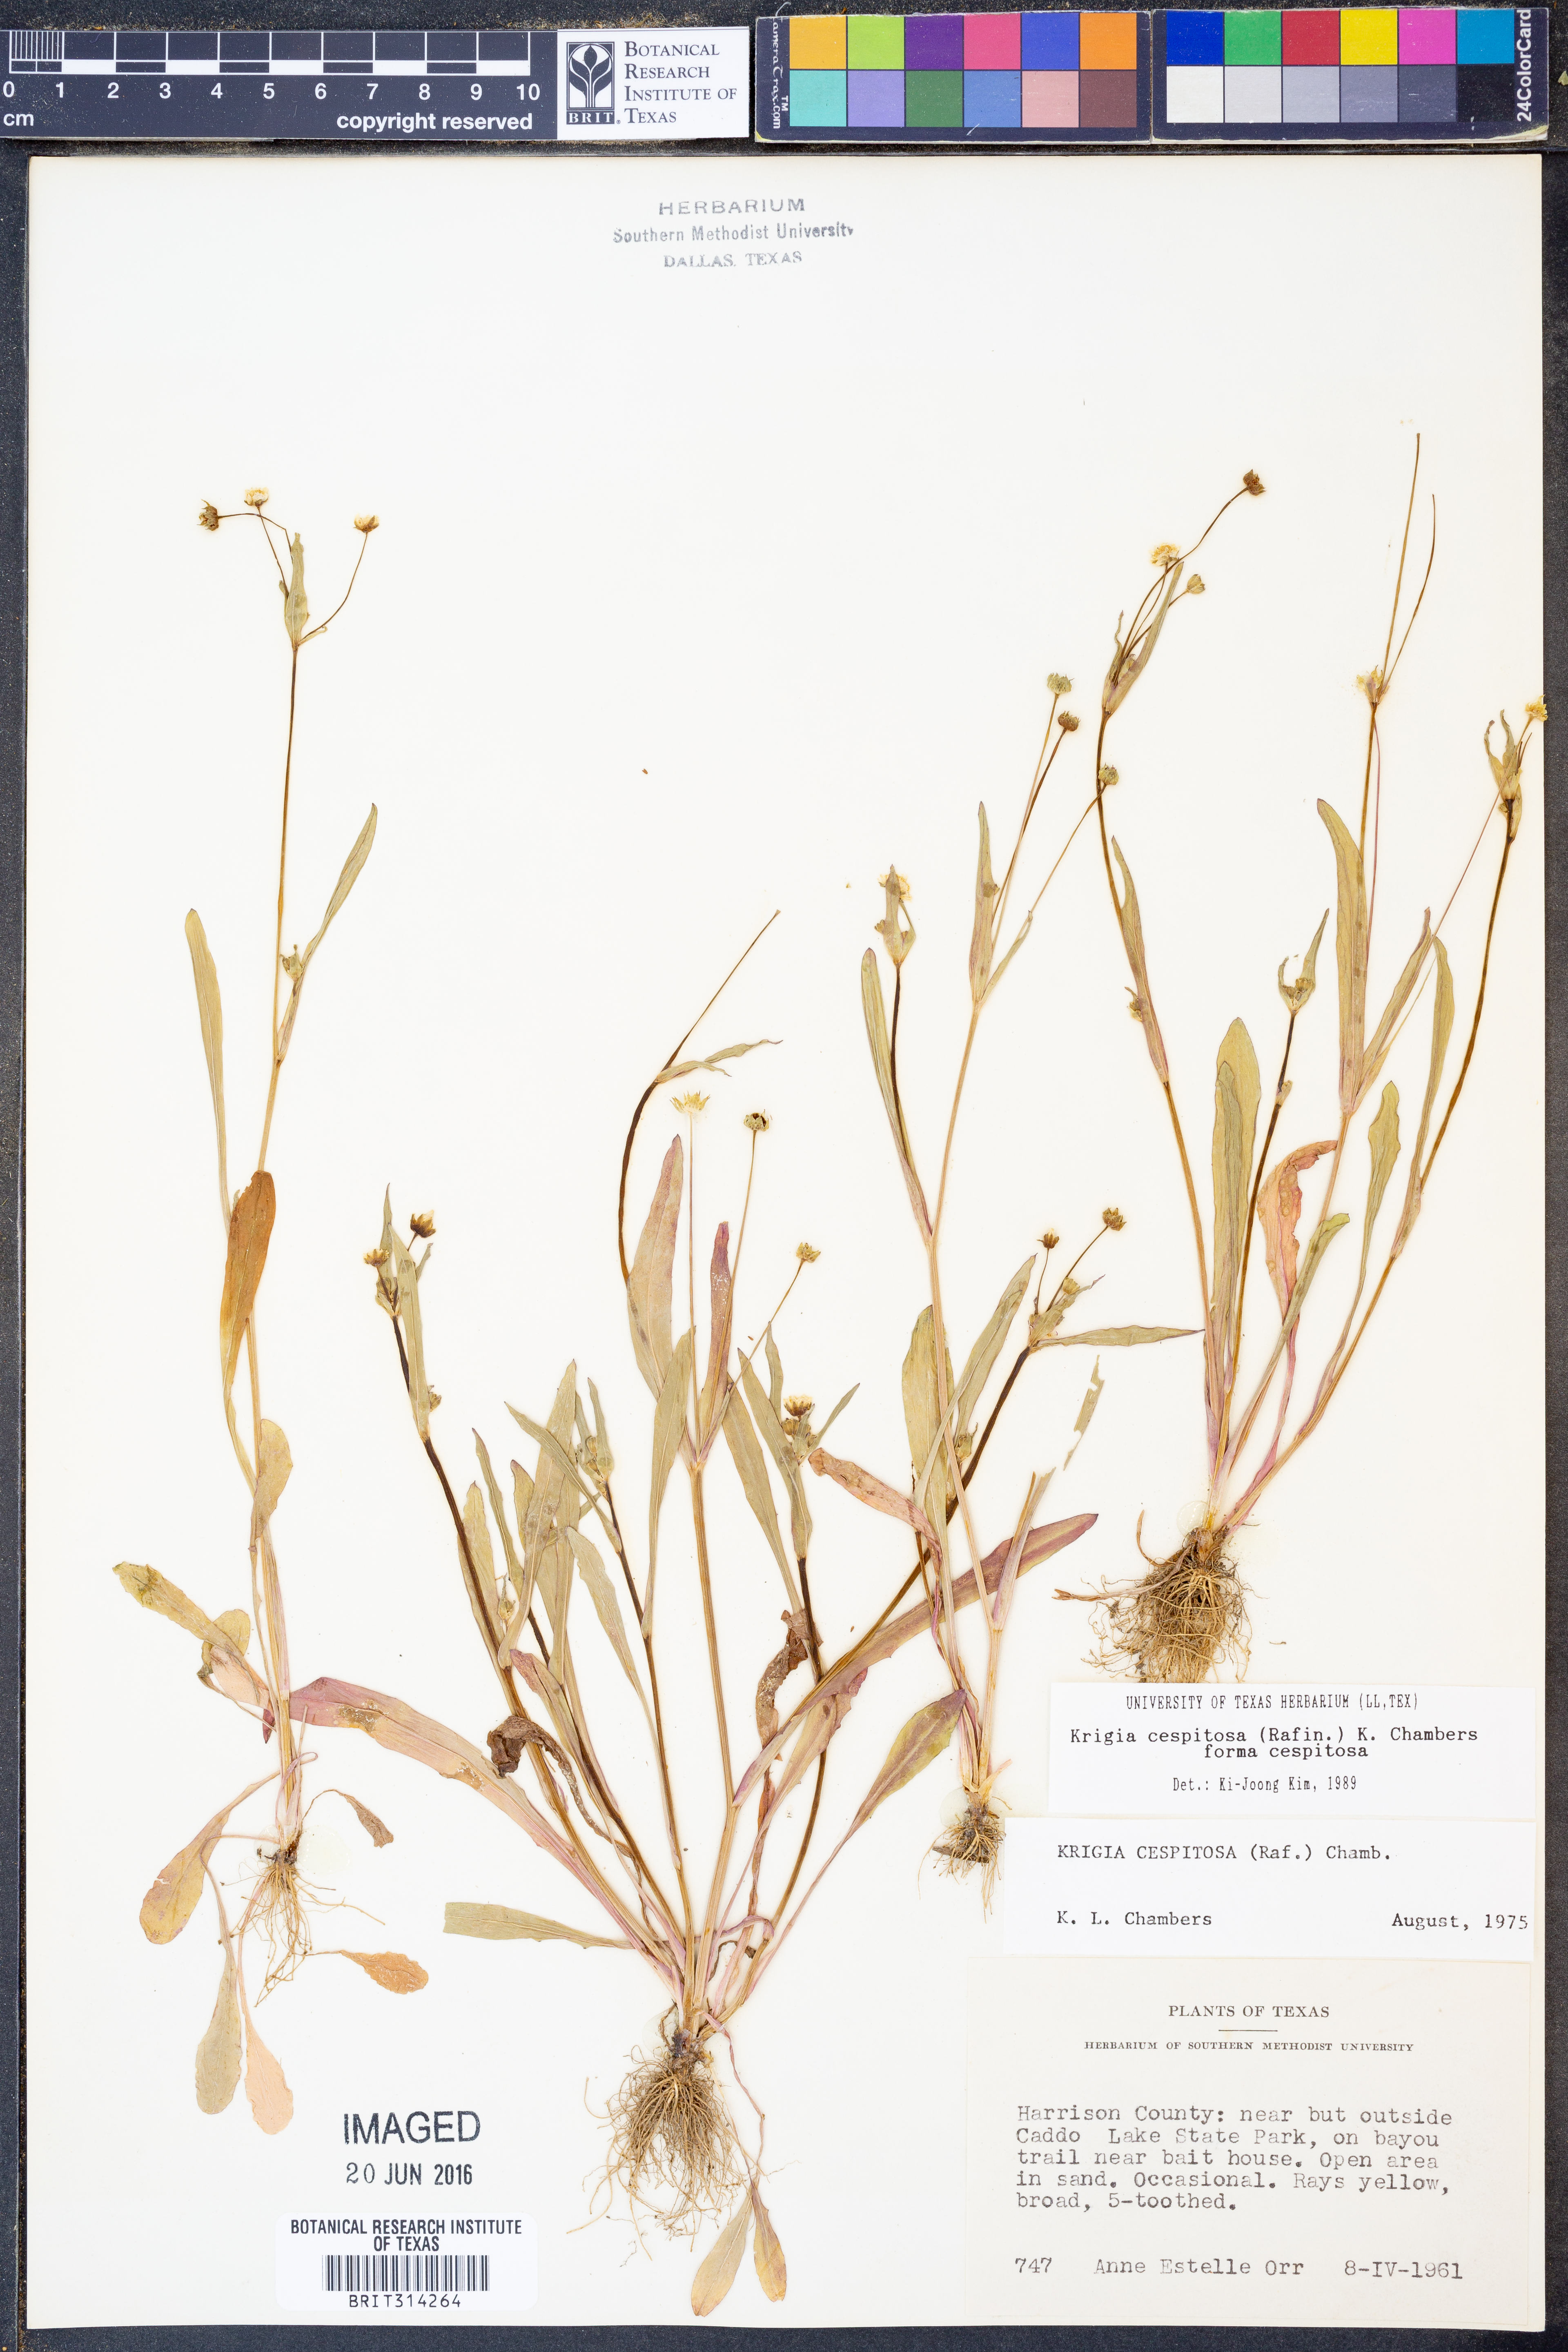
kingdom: Plantae
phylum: Tracheophyta
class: Magnoliopsida
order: Asterales
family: Asteraceae
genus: Krigia
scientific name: Krigia cespitosa
